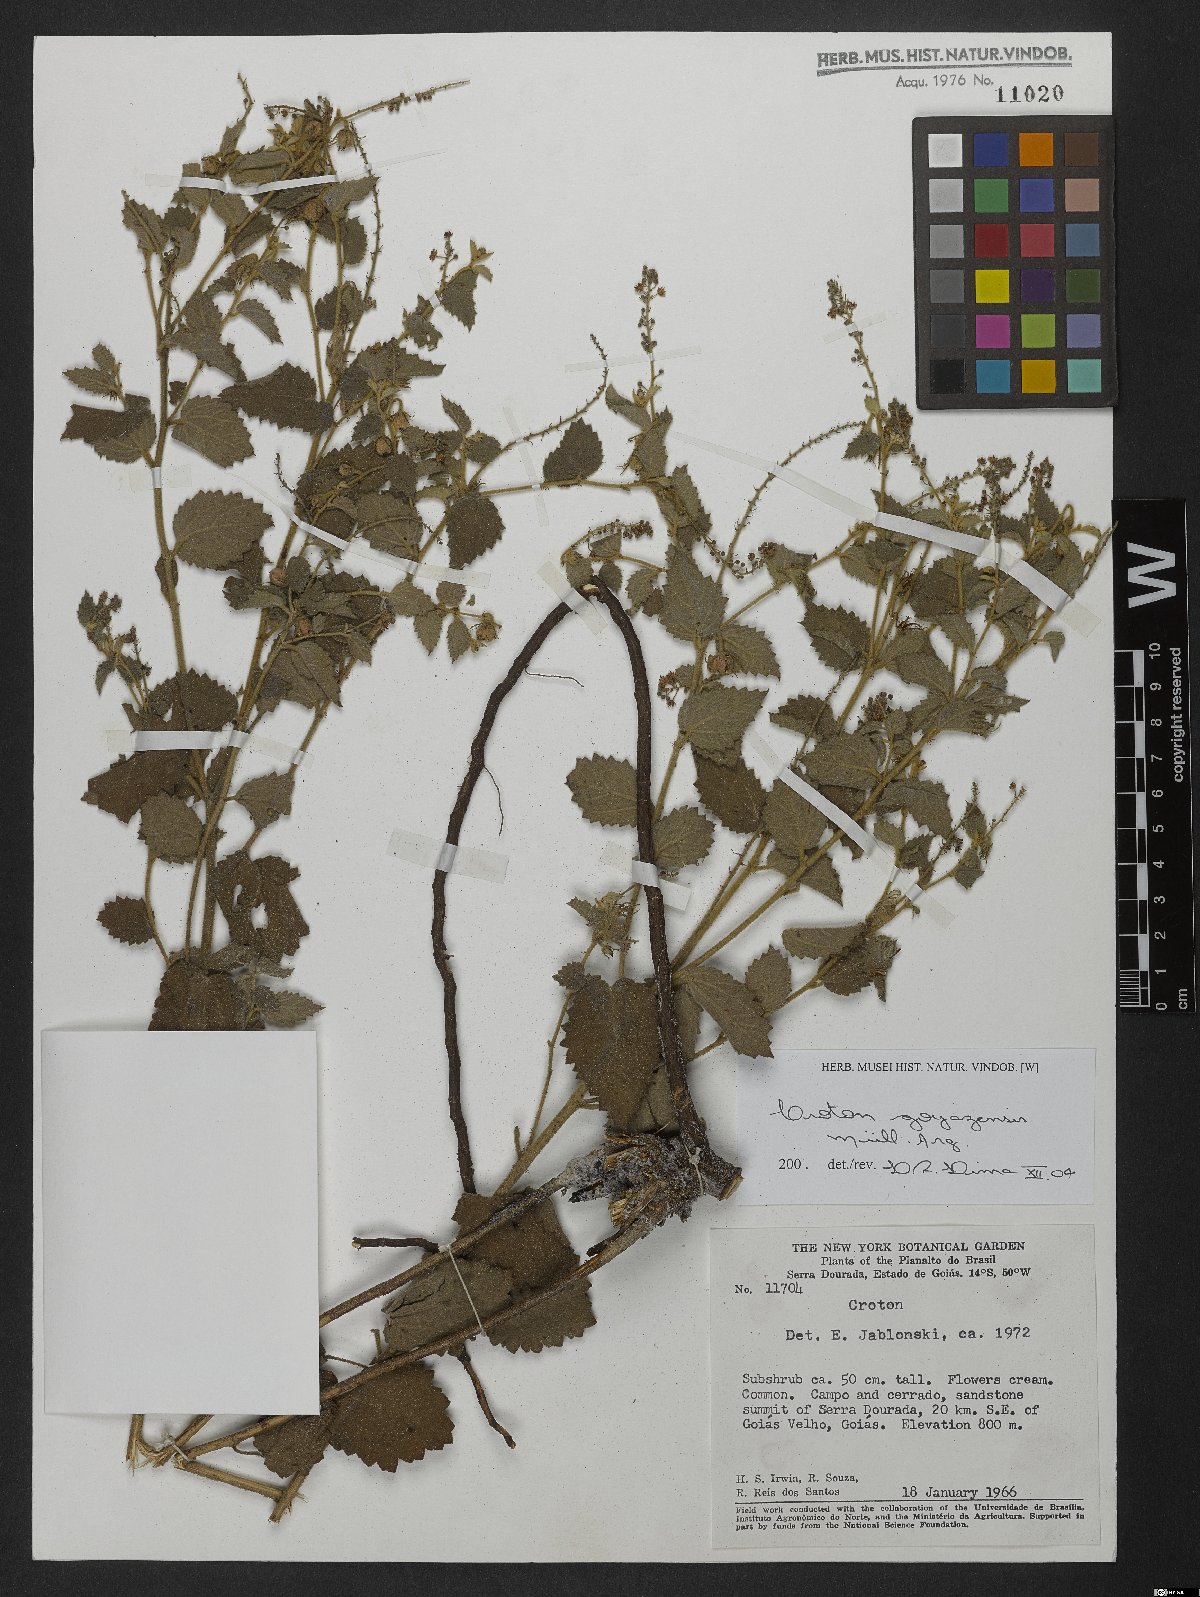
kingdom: Plantae
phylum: Tracheophyta
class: Magnoliopsida
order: Malpighiales
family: Euphorbiaceae
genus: Croton
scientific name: Croton goyazensis
